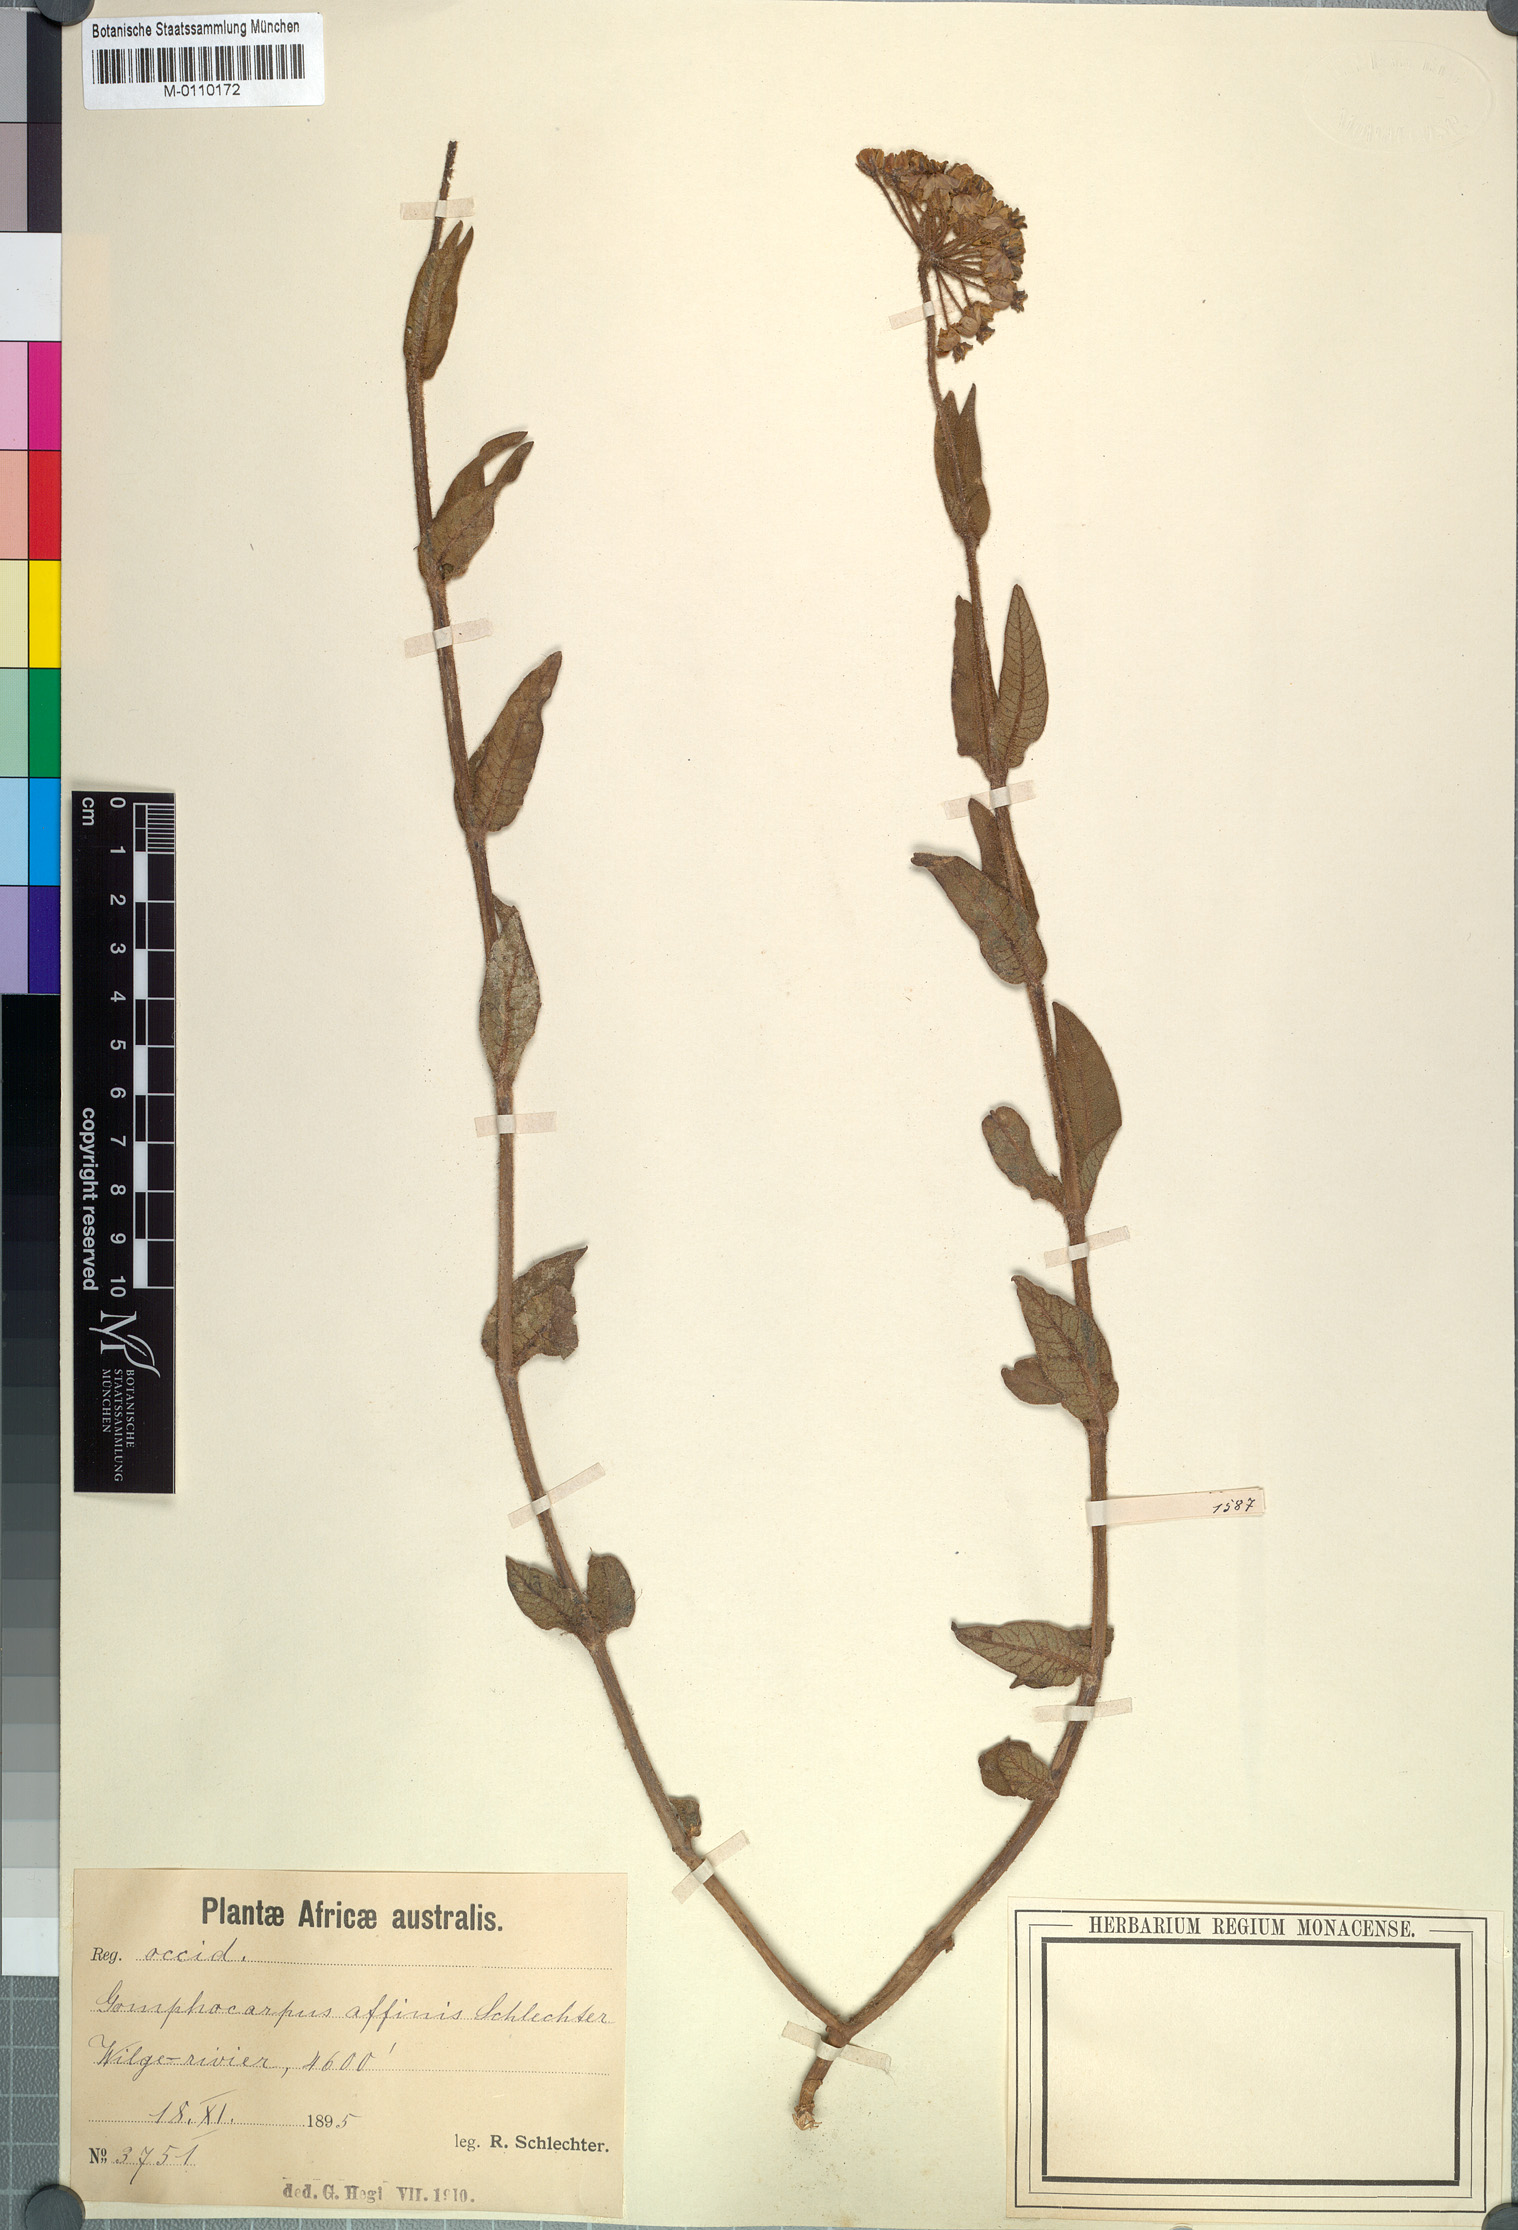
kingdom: Plantae
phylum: Tracheophyta
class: Magnoliopsida
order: Gentianales
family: Apocynaceae
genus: Asclepias
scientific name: Asclepias albens
